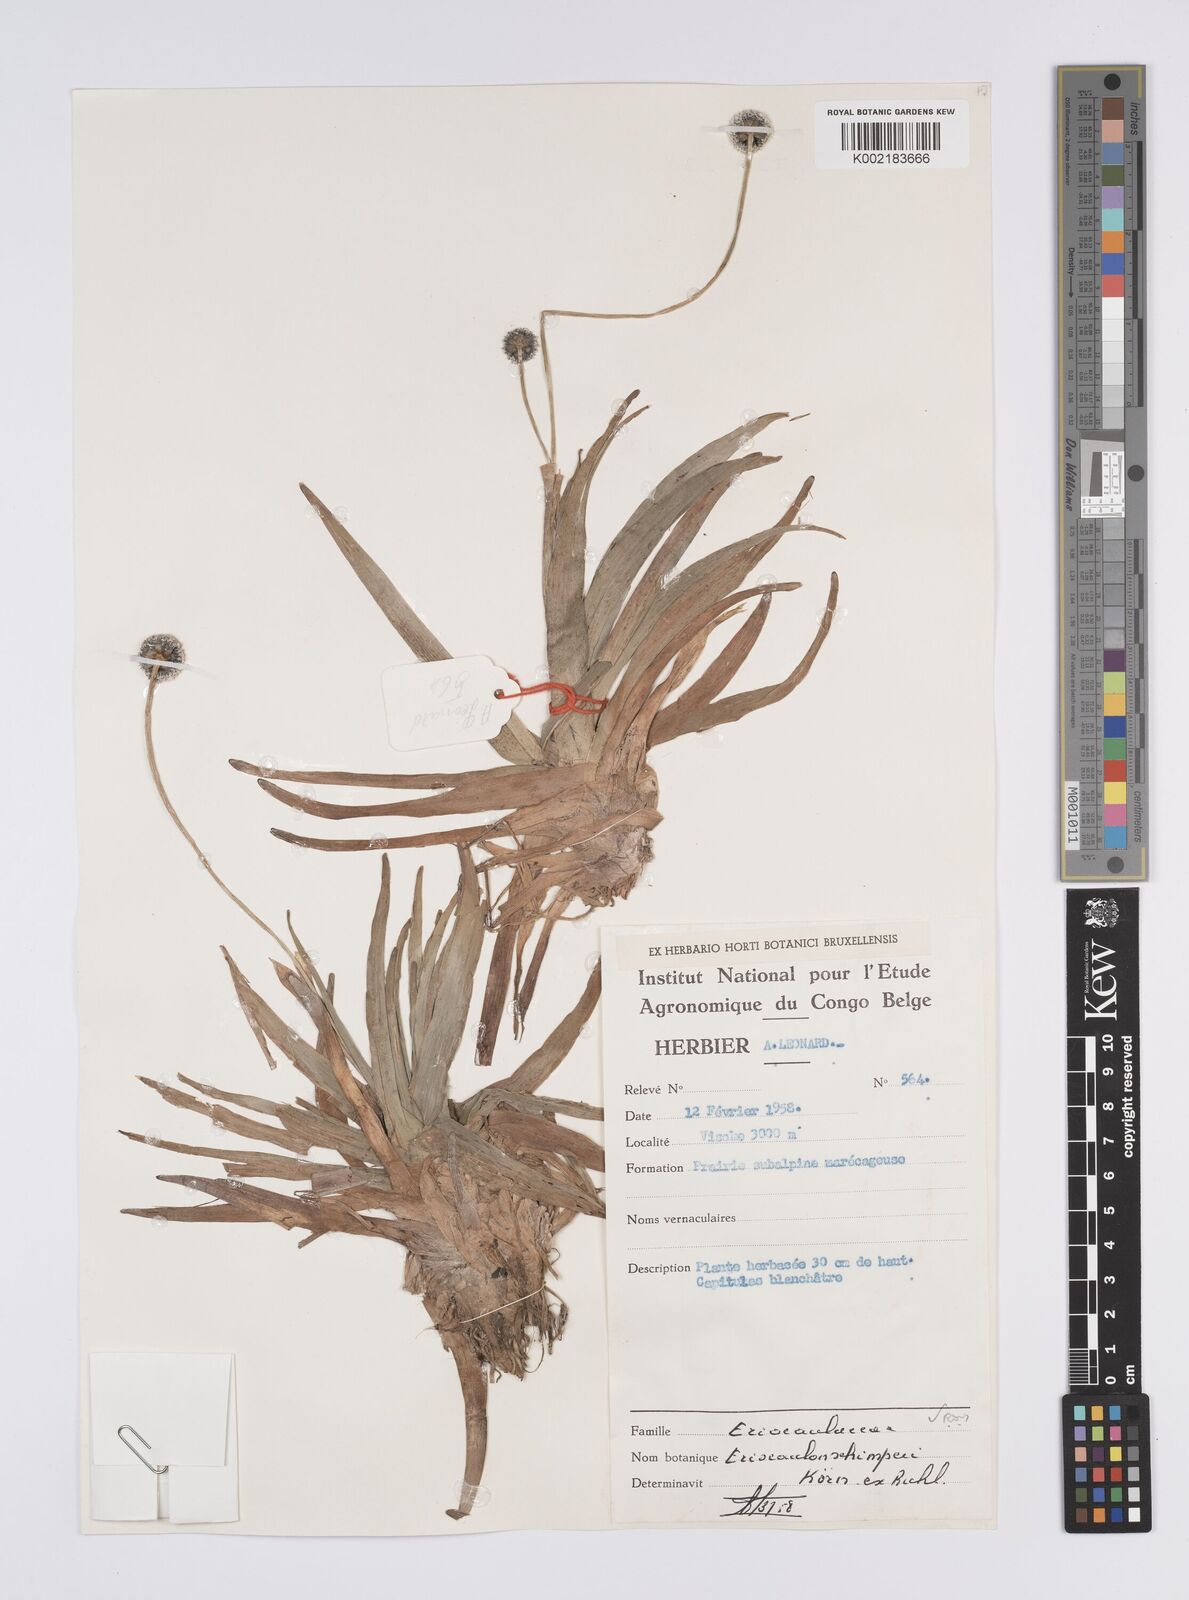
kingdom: Plantae
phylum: Tracheophyta
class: Liliopsida
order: Poales
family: Eriocaulaceae
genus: Eriocaulon
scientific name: Eriocaulon schimperi
